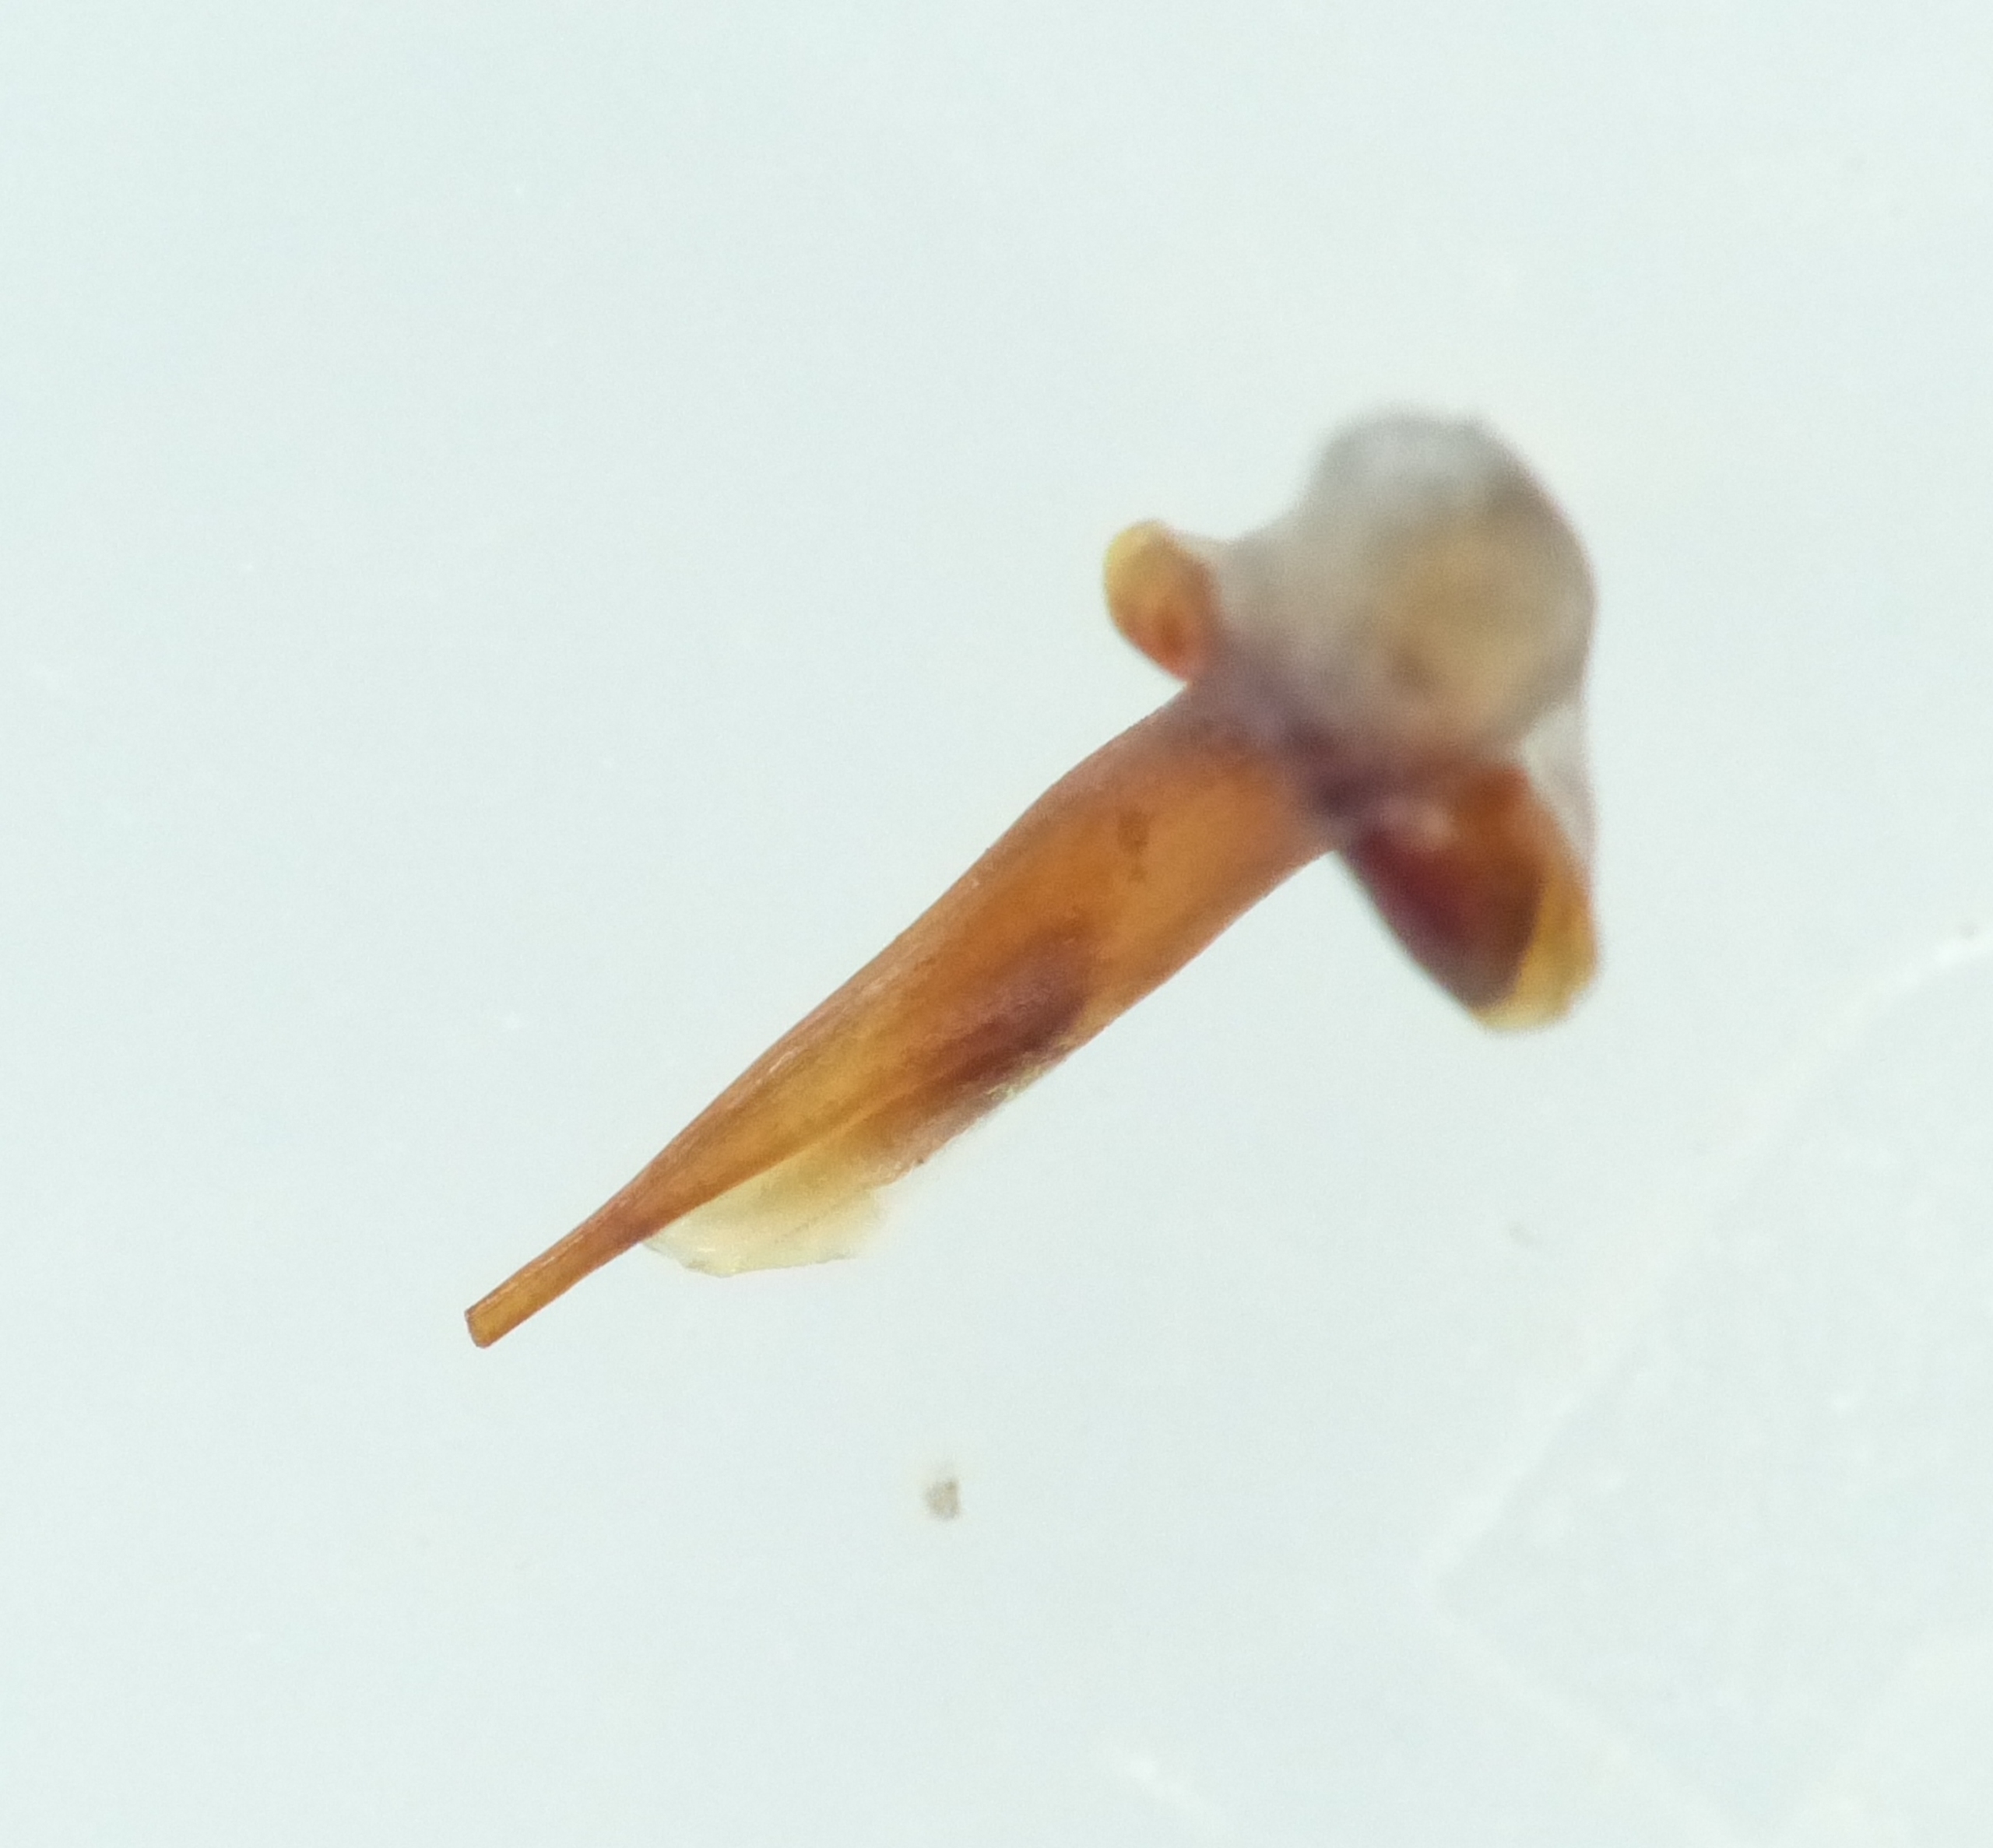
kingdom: Animalia
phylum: Arthropoda
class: Insecta
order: Coleoptera
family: Carabidae
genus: Ophonus
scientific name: Ophonus puncticeps
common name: Gulerodskalkløber
